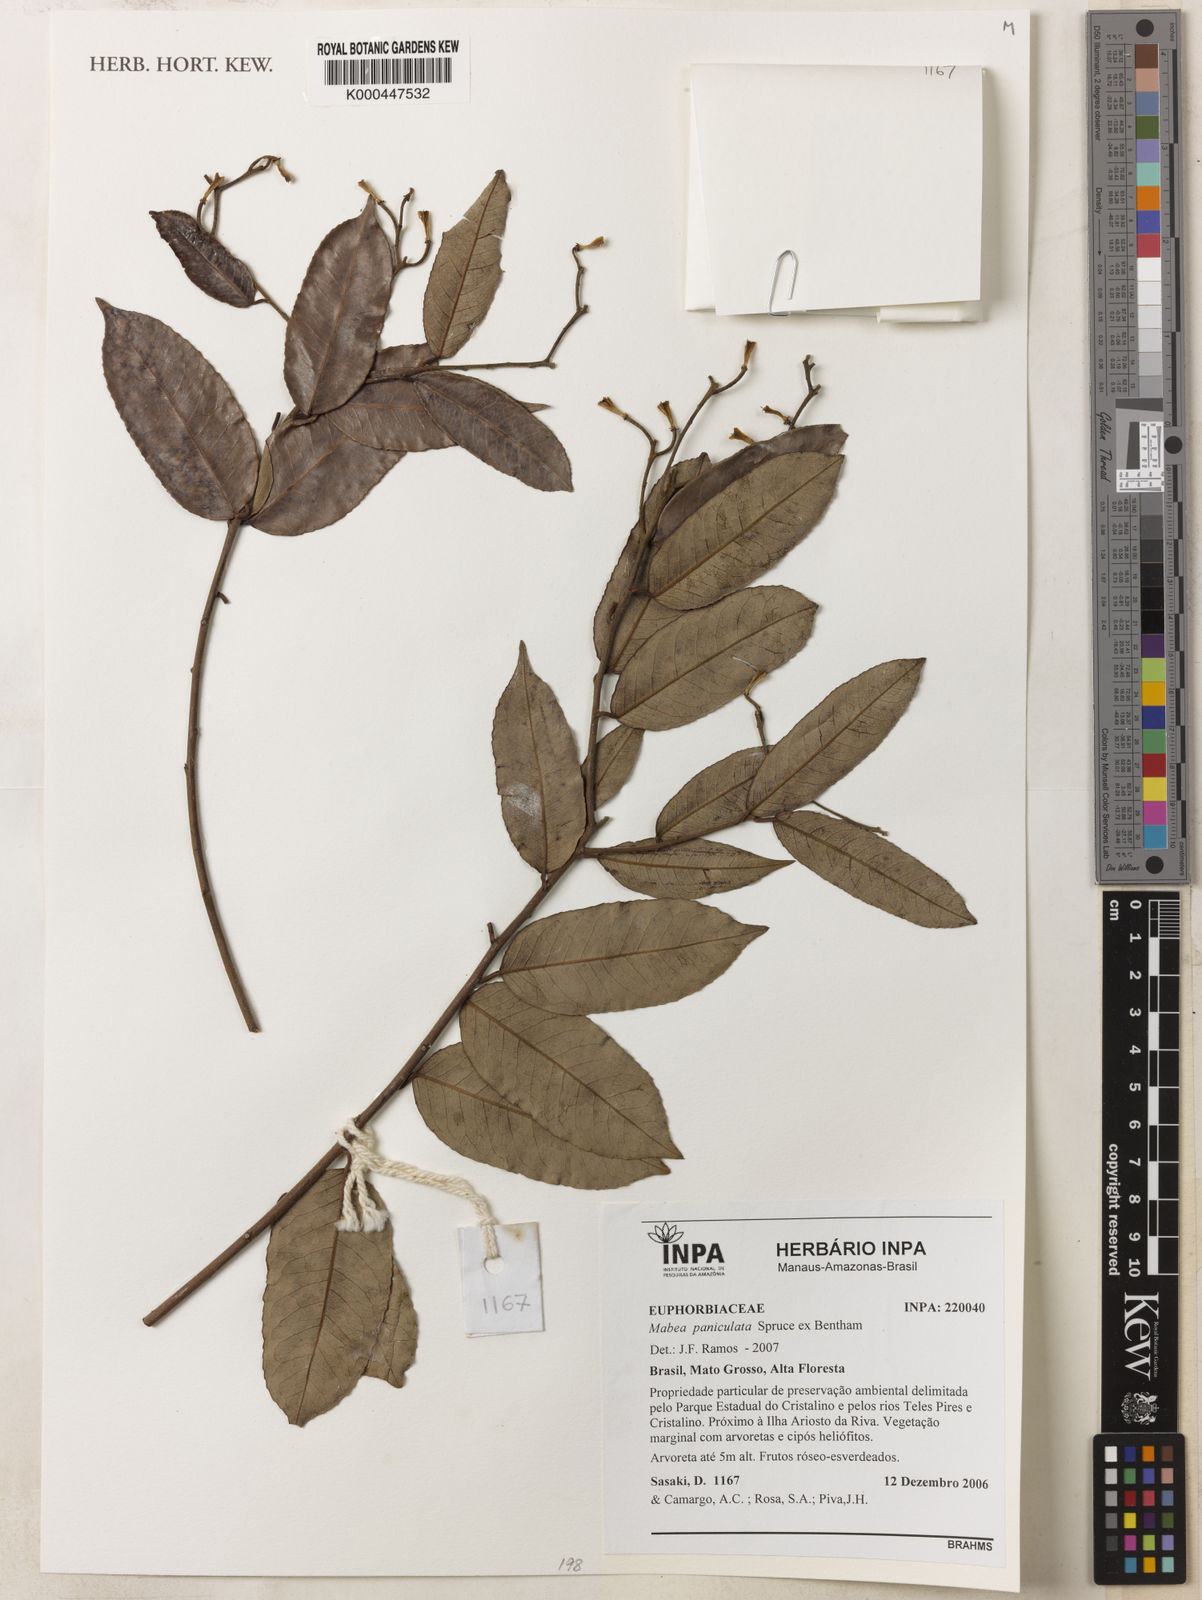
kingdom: Plantae
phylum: Tracheophyta
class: Magnoliopsida
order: Malpighiales
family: Euphorbiaceae
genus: Mabea
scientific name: Mabea paniculata
